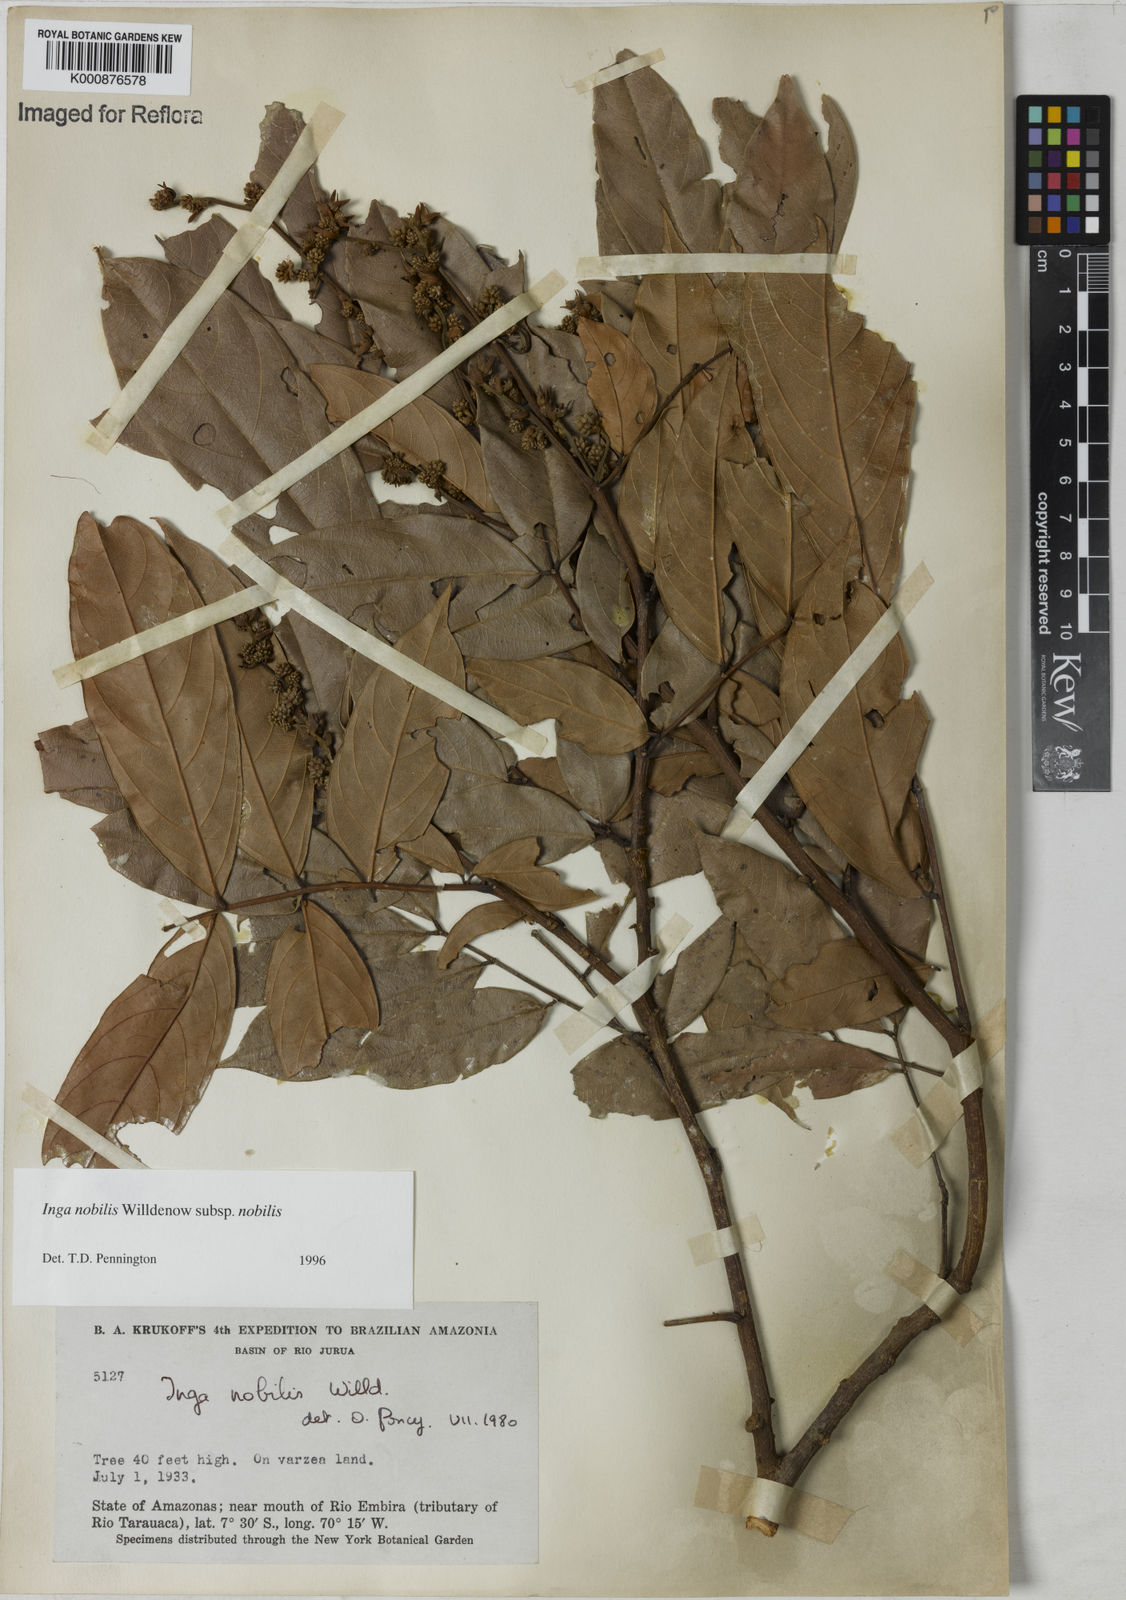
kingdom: Plantae
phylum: Tracheophyta
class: Magnoliopsida
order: Fabales
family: Fabaceae
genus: Inga
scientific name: Inga nobilis
